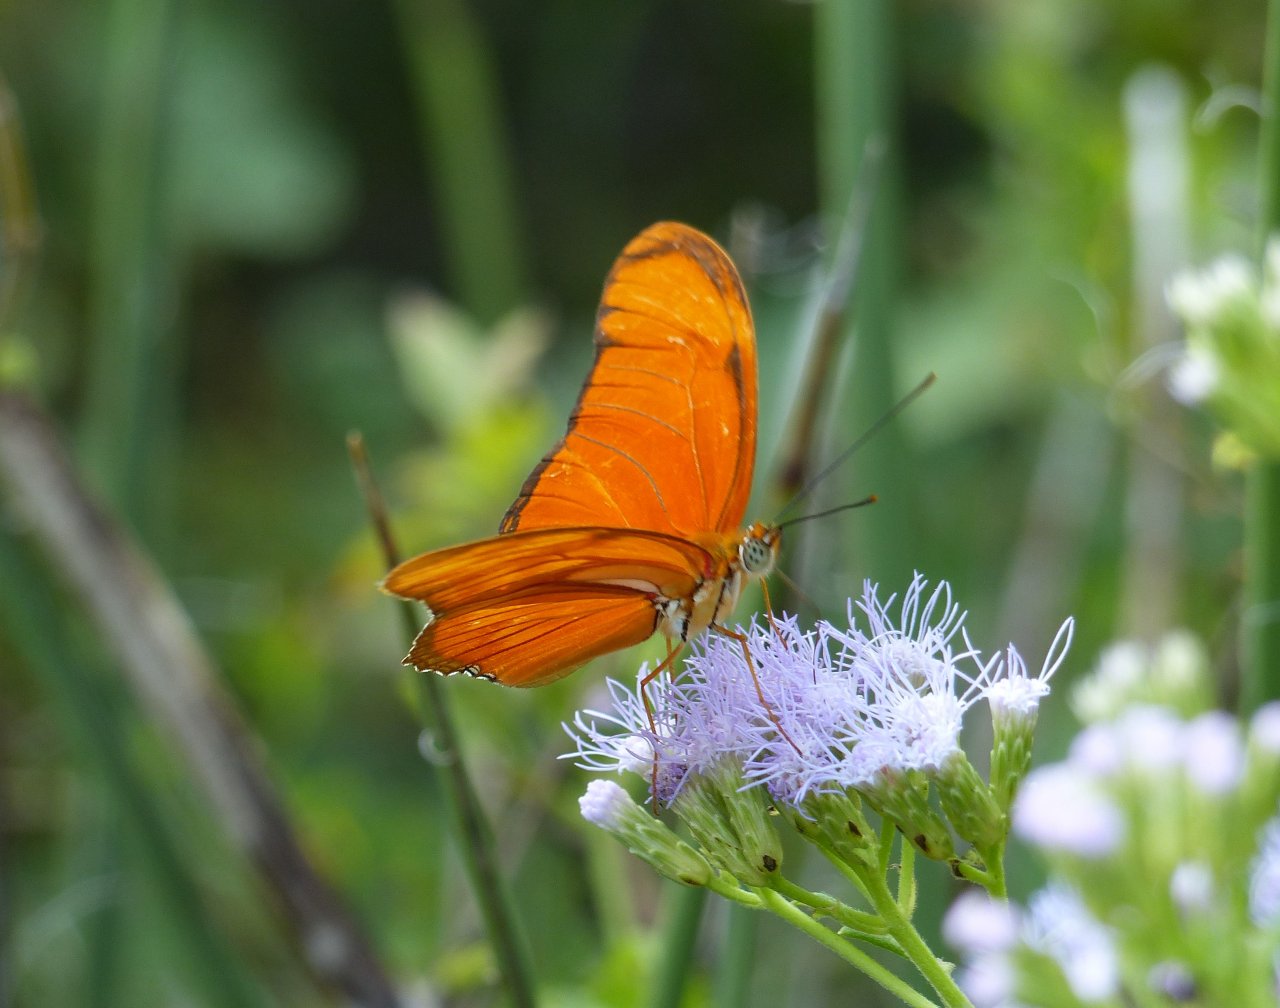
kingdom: Animalia
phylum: Arthropoda
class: Insecta
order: Lepidoptera
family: Nymphalidae
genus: Dryas
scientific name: Dryas iulia
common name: Julia
